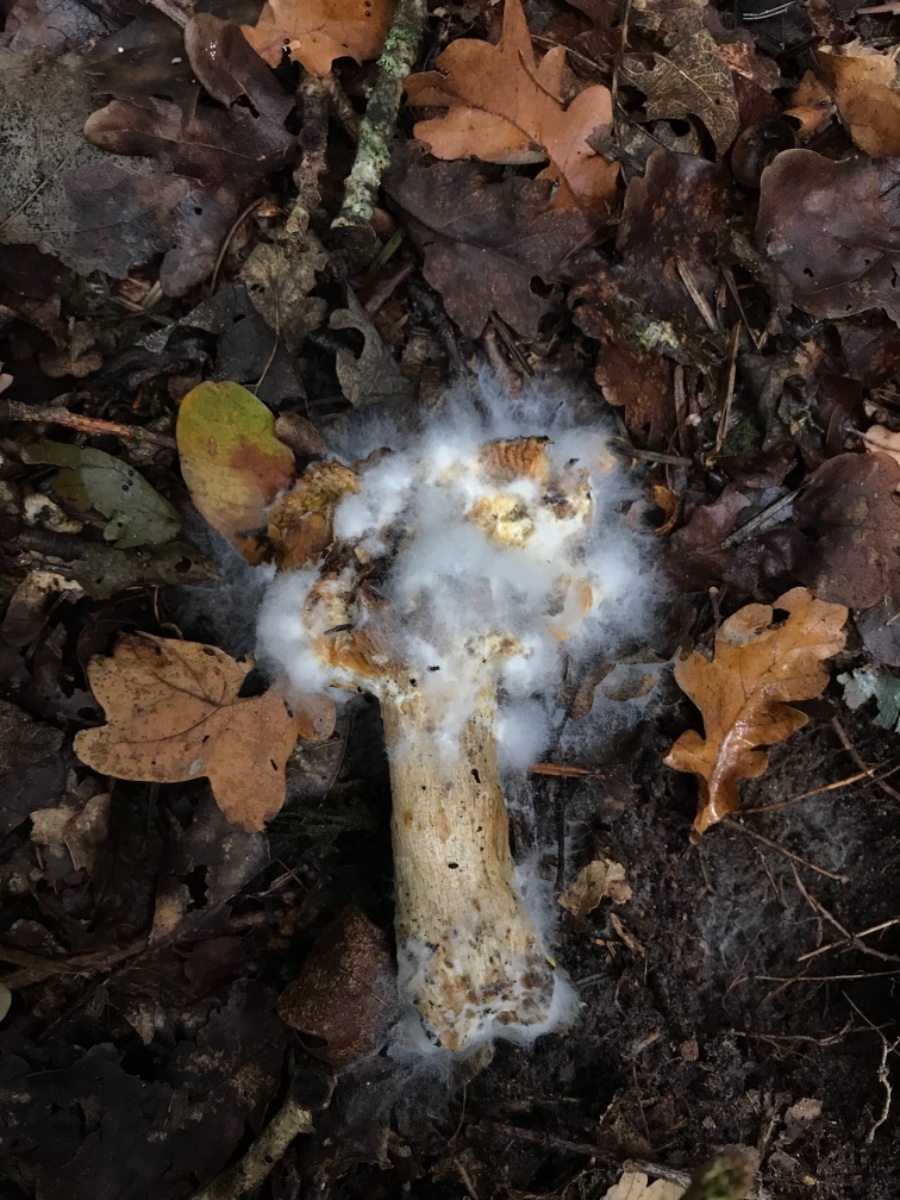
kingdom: Fungi
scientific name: Fungi
